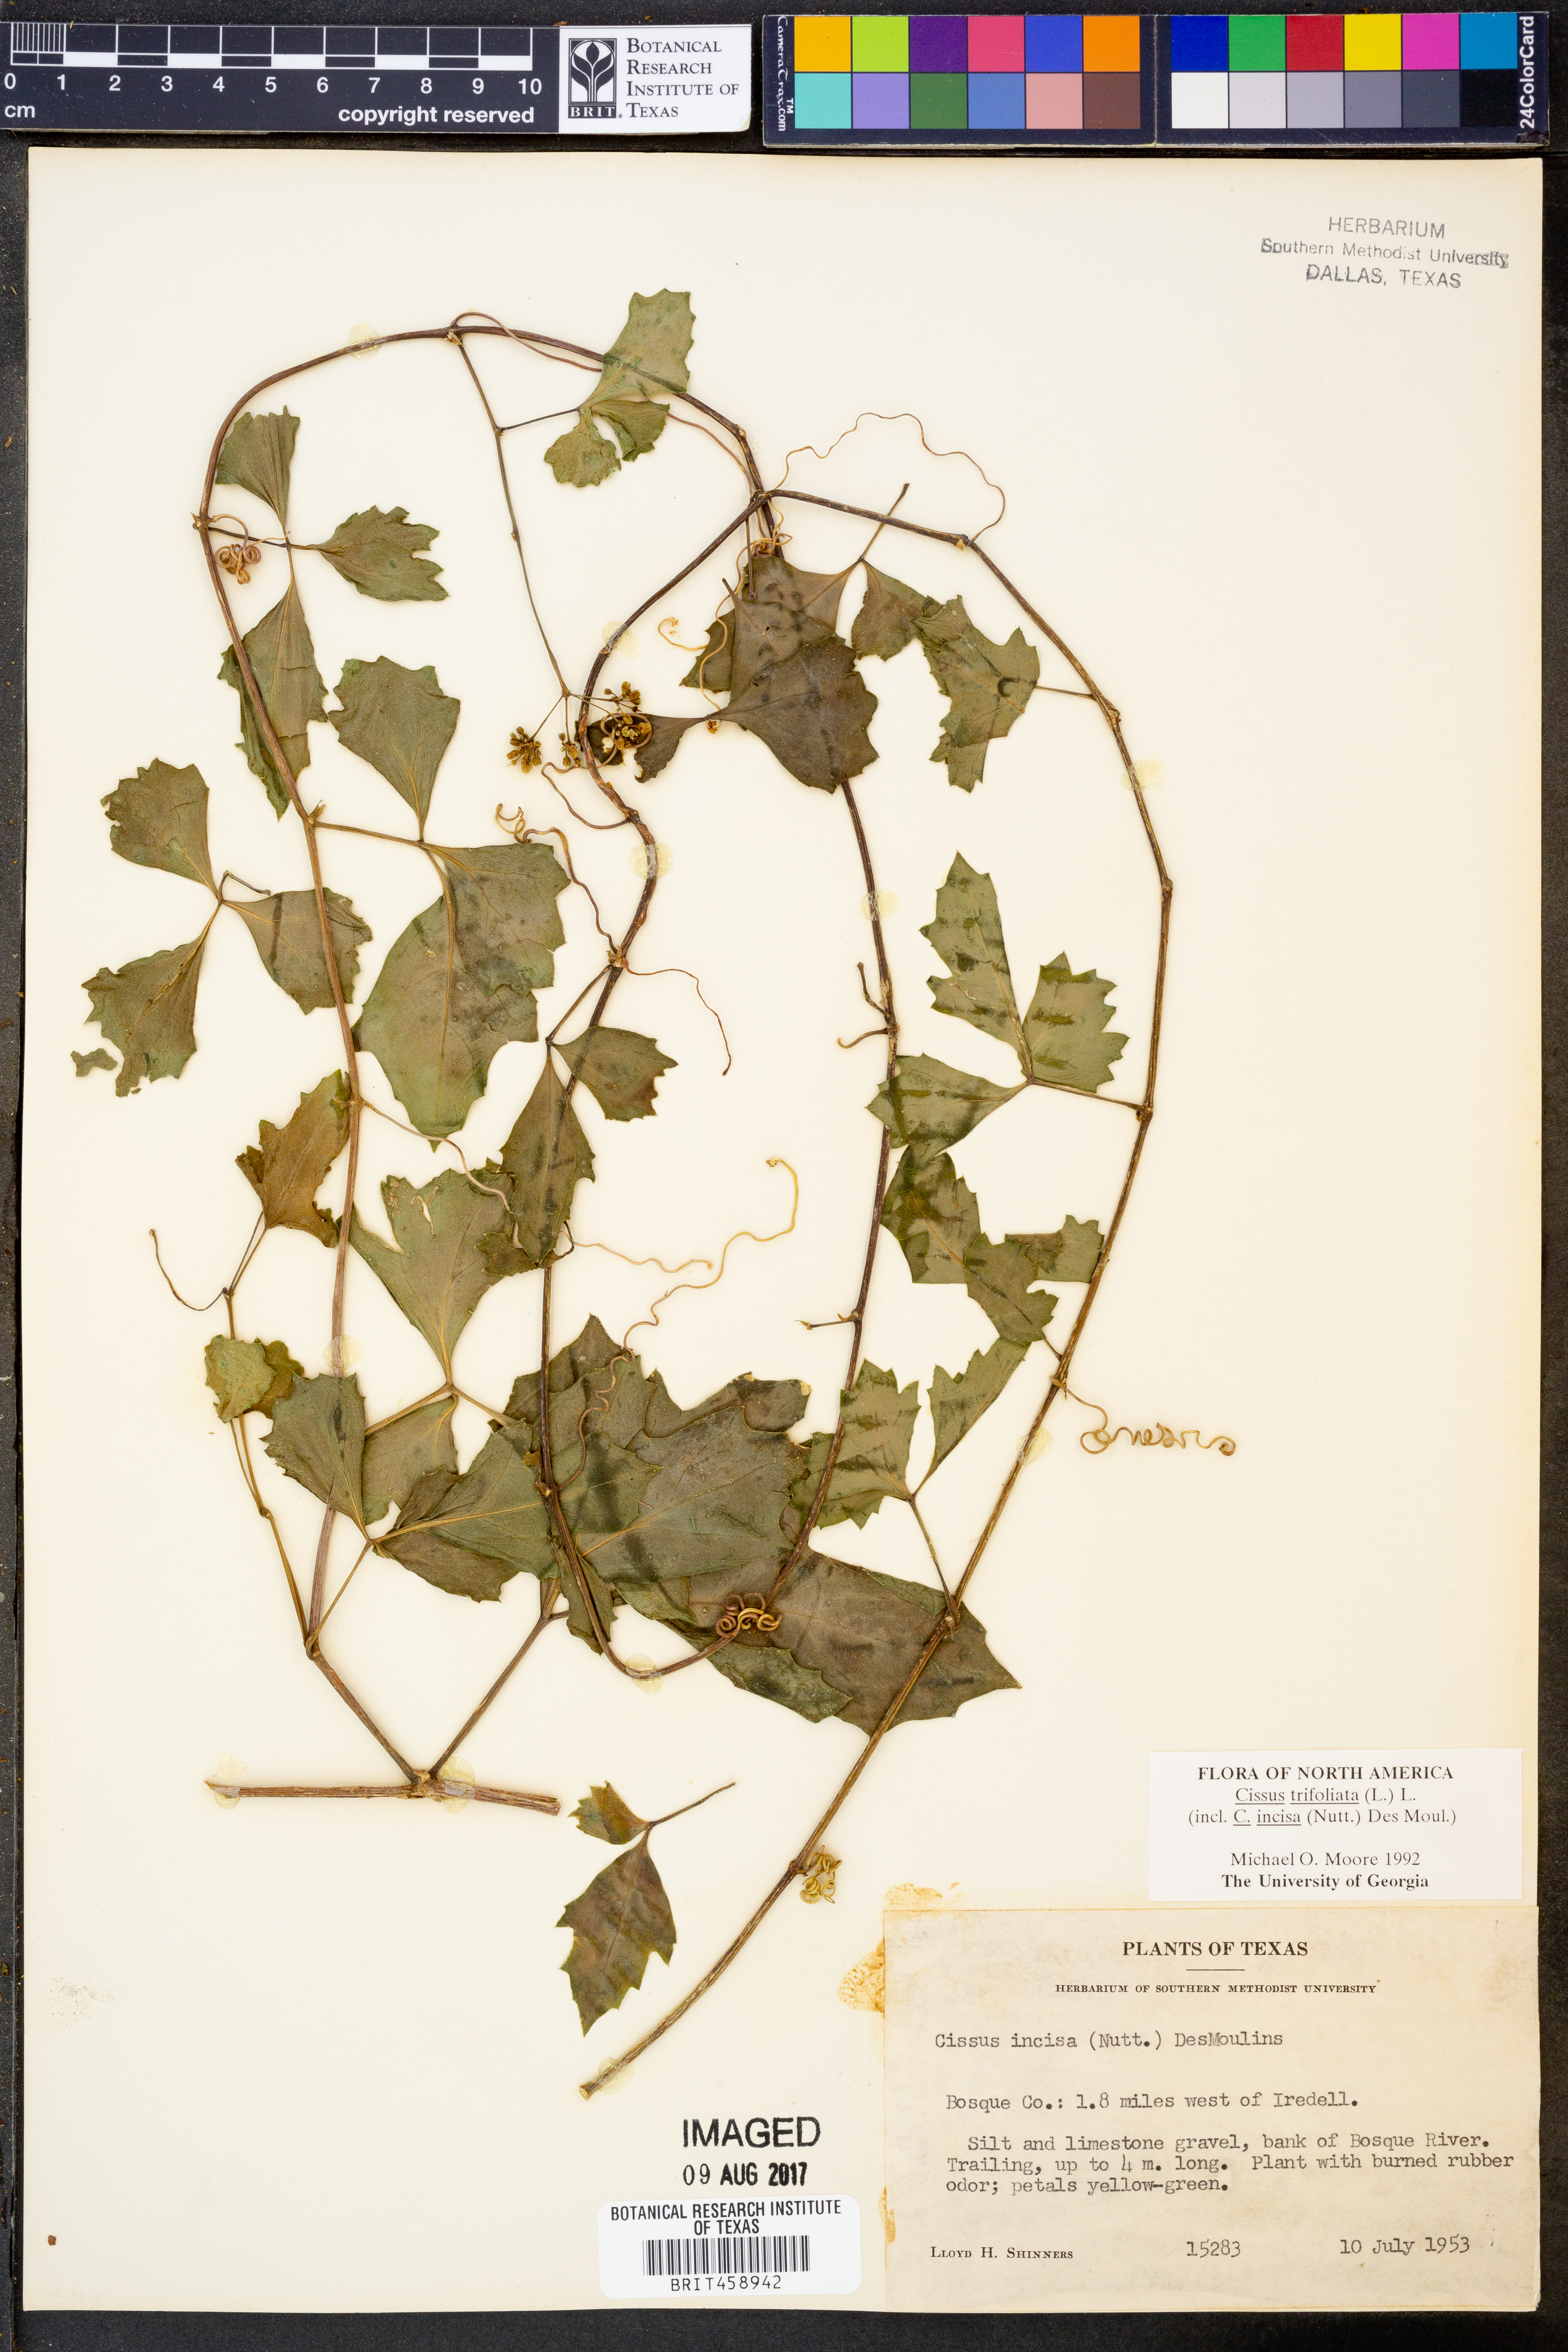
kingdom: Plantae
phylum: Tracheophyta
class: Magnoliopsida
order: Vitales
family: Vitaceae
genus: Cissus
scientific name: Cissus trifoliata
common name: Vine-sorrel
